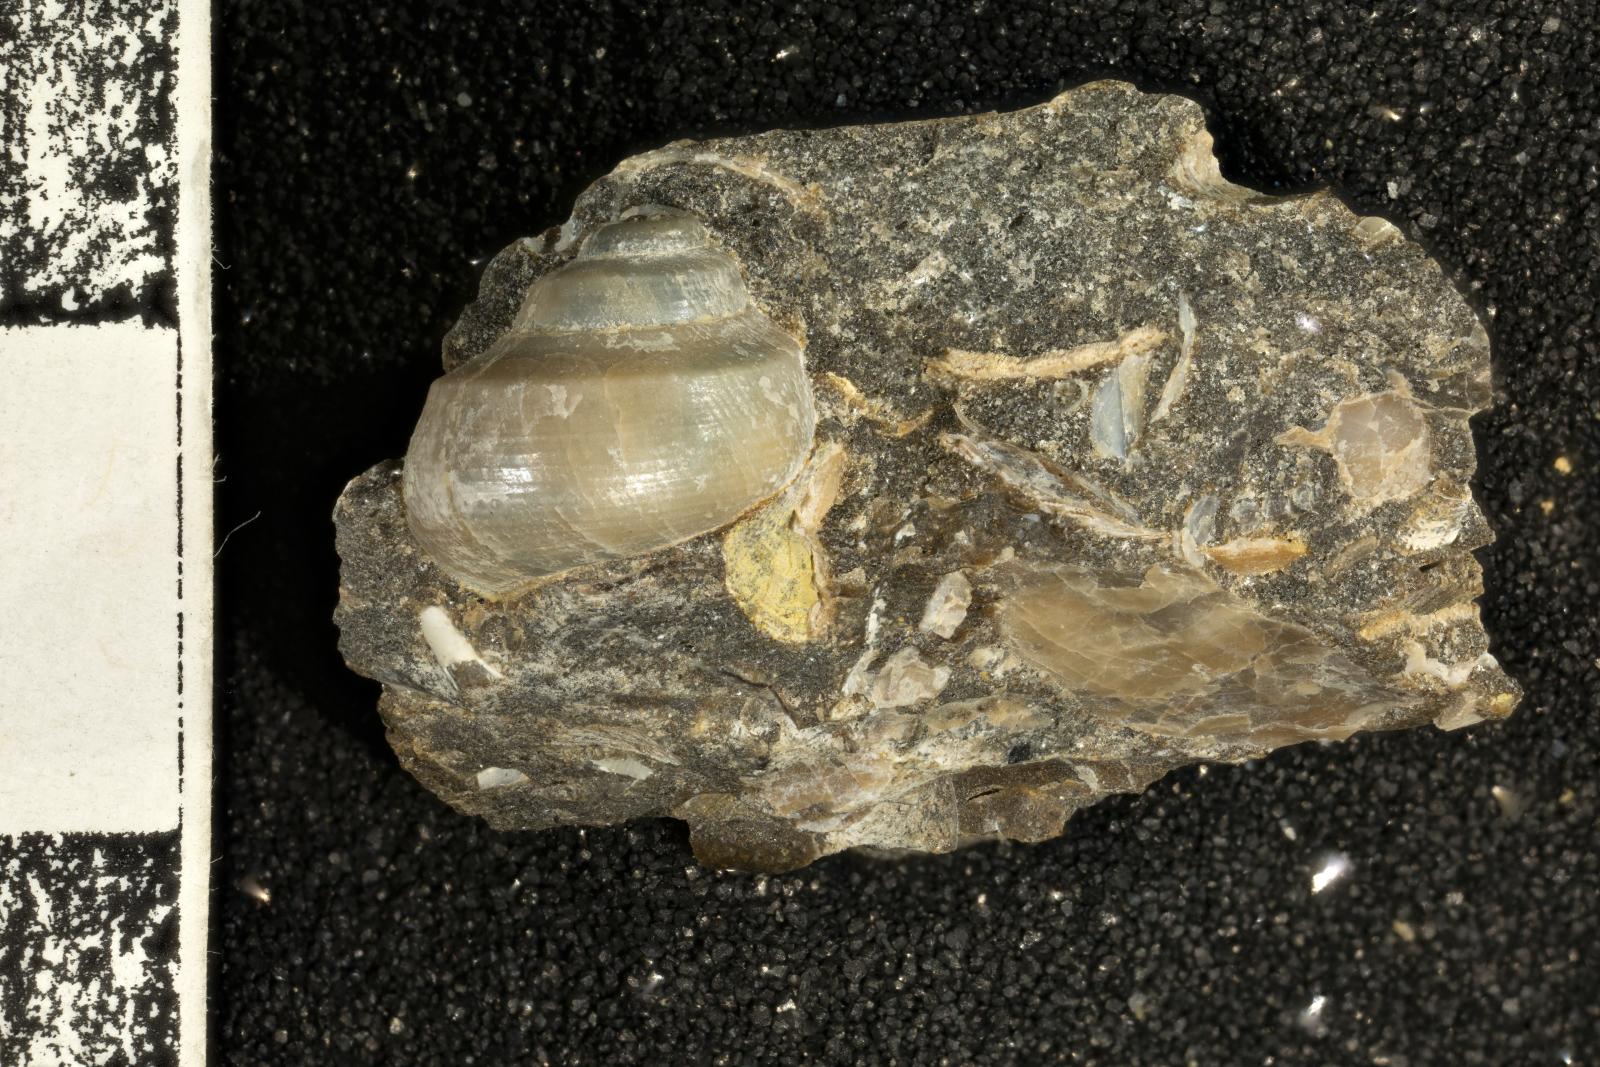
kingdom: Animalia
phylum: Mollusca
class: Bivalvia
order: Ostreida
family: Pteriidae
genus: Atira
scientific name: Atira Angaria ornatissima
